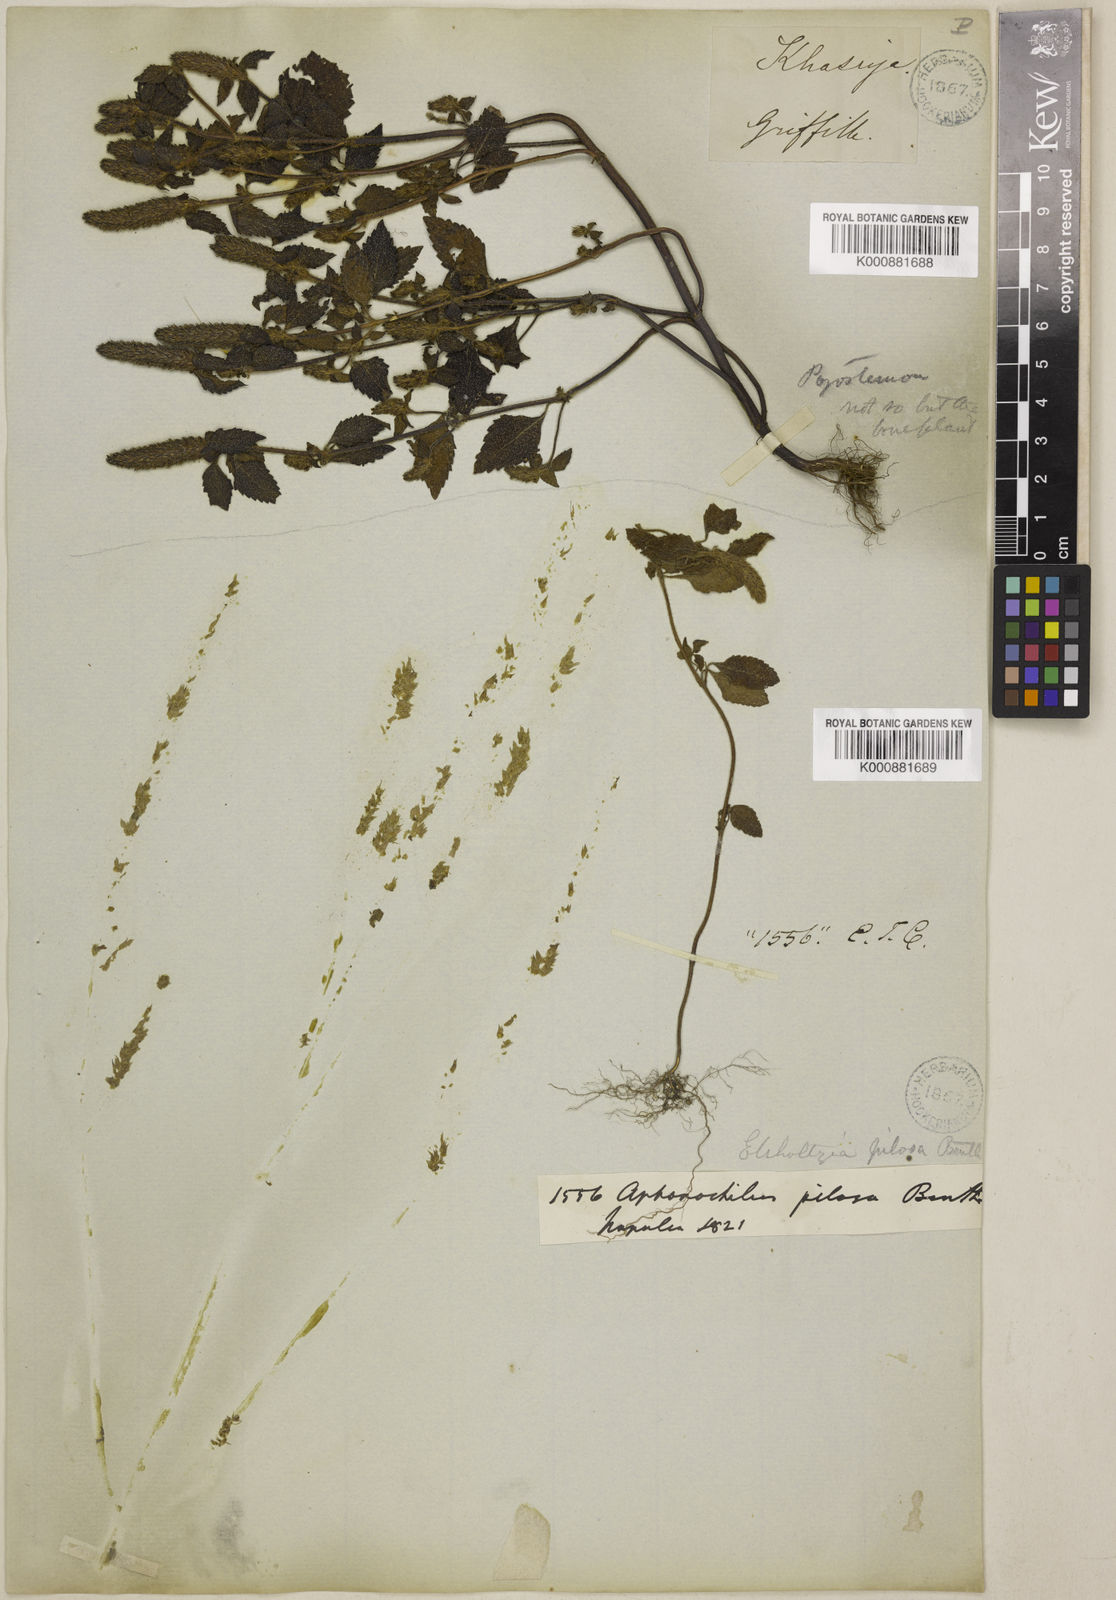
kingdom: Plantae
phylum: Tracheophyta
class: Magnoliopsida
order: Lamiales
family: Lamiaceae
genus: Elsholtzia
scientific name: Elsholtzia pilosa
